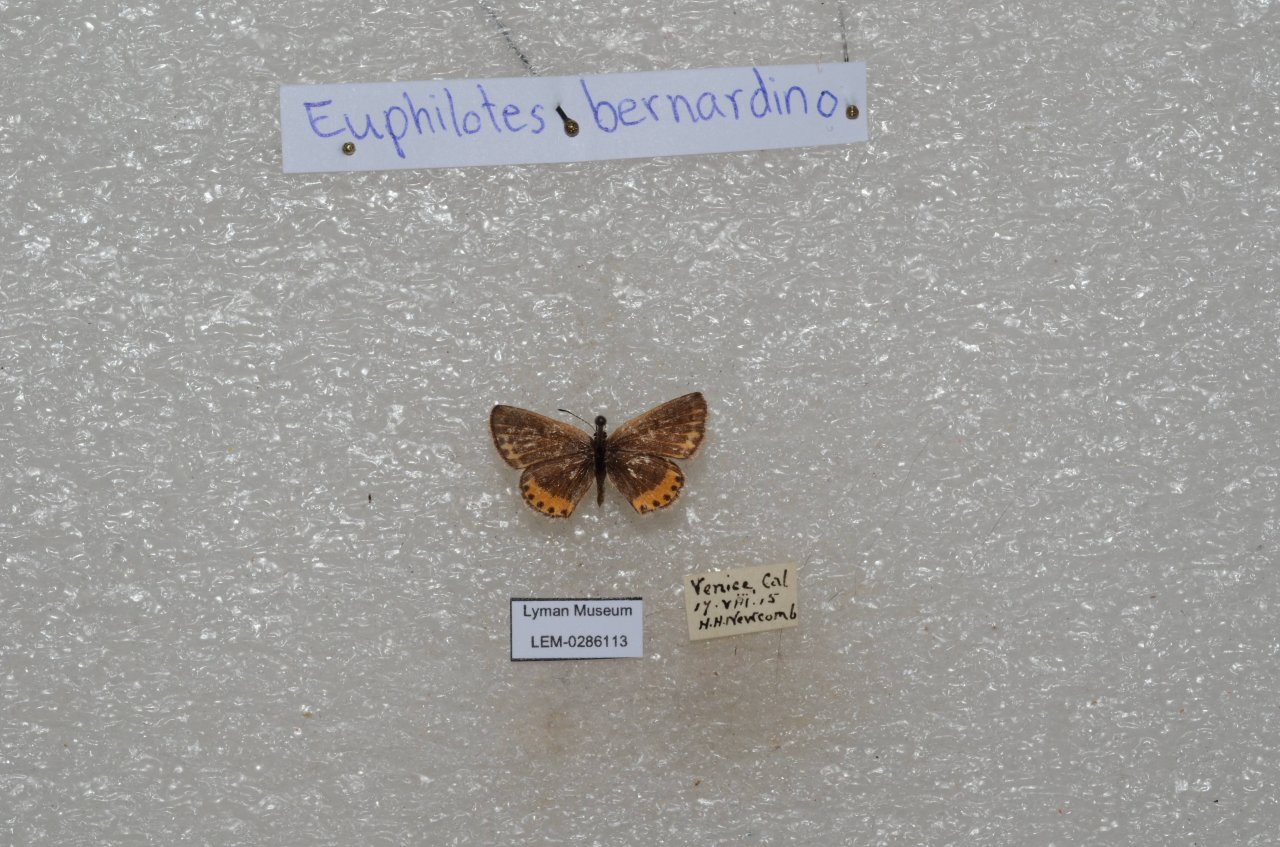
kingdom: Animalia
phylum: Arthropoda
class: Insecta
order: Lepidoptera
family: Lycaenidae
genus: Euphilotes
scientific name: Euphilotes battoides
